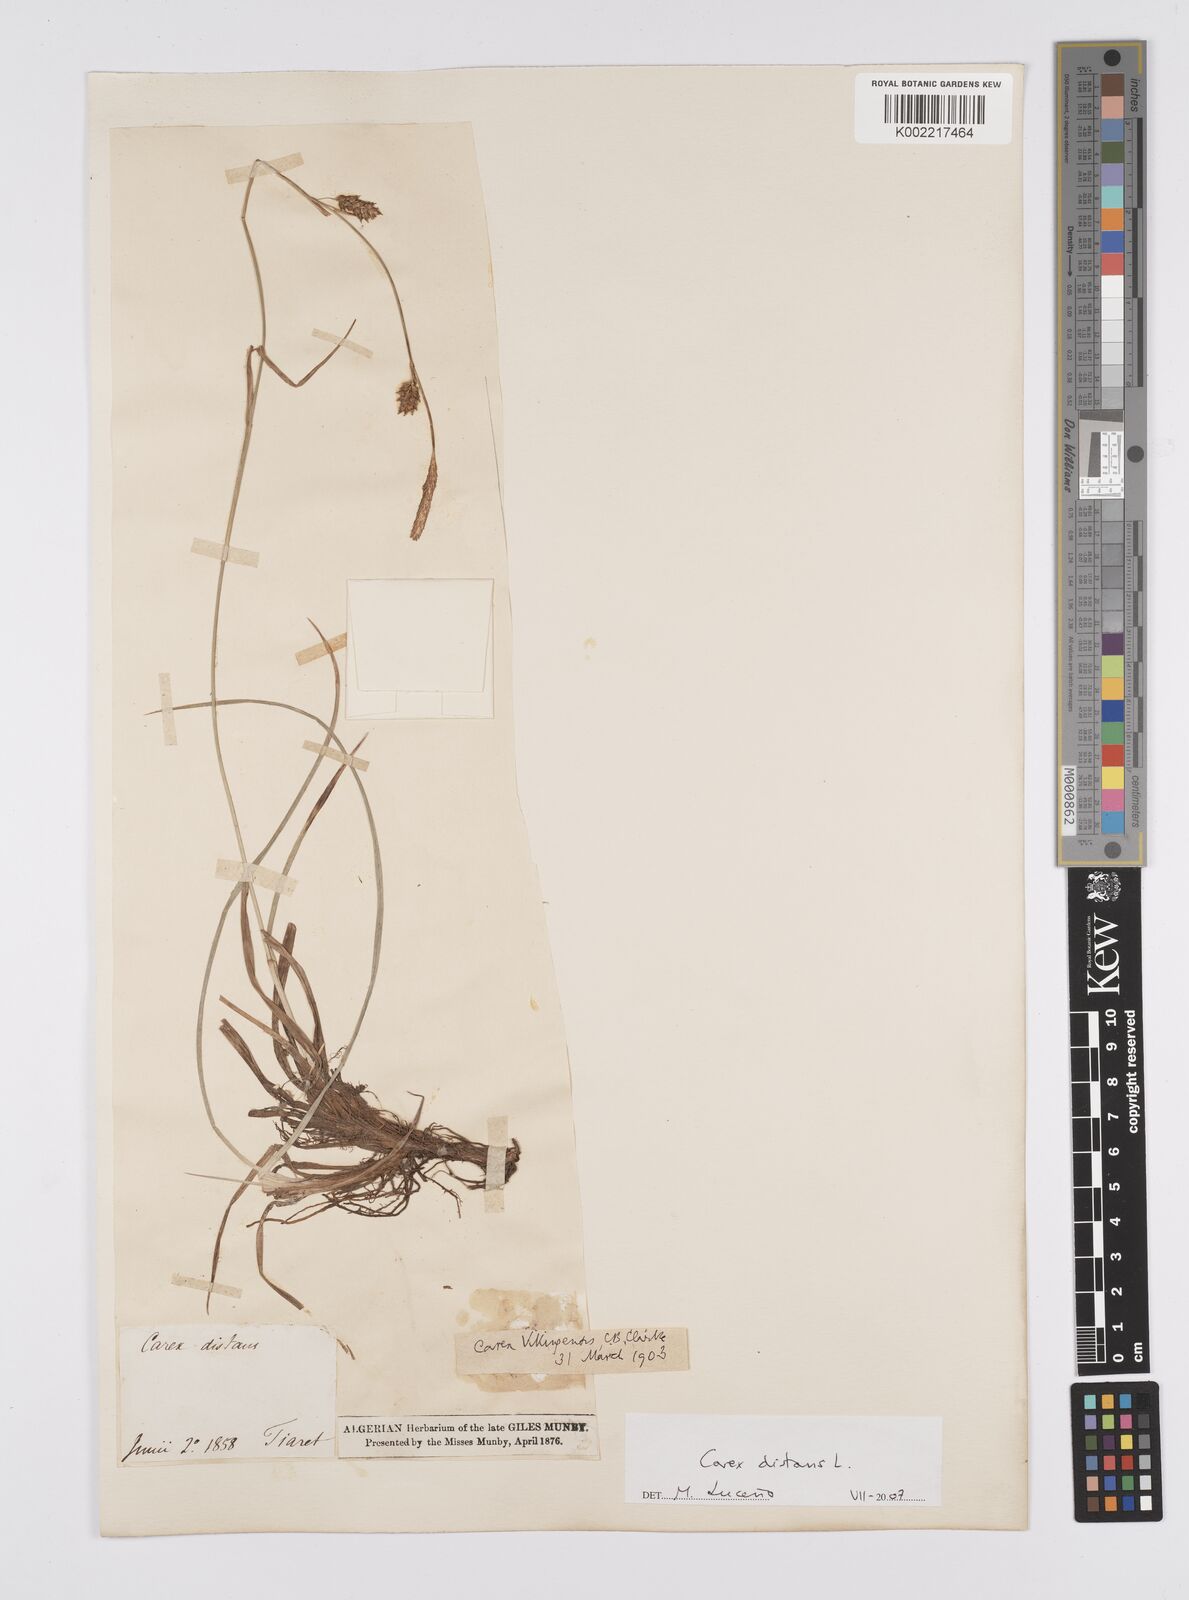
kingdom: Plantae
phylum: Tracheophyta
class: Liliopsida
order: Poales
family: Cyperaceae
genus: Carex
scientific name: Carex distans
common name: Distant sedge
